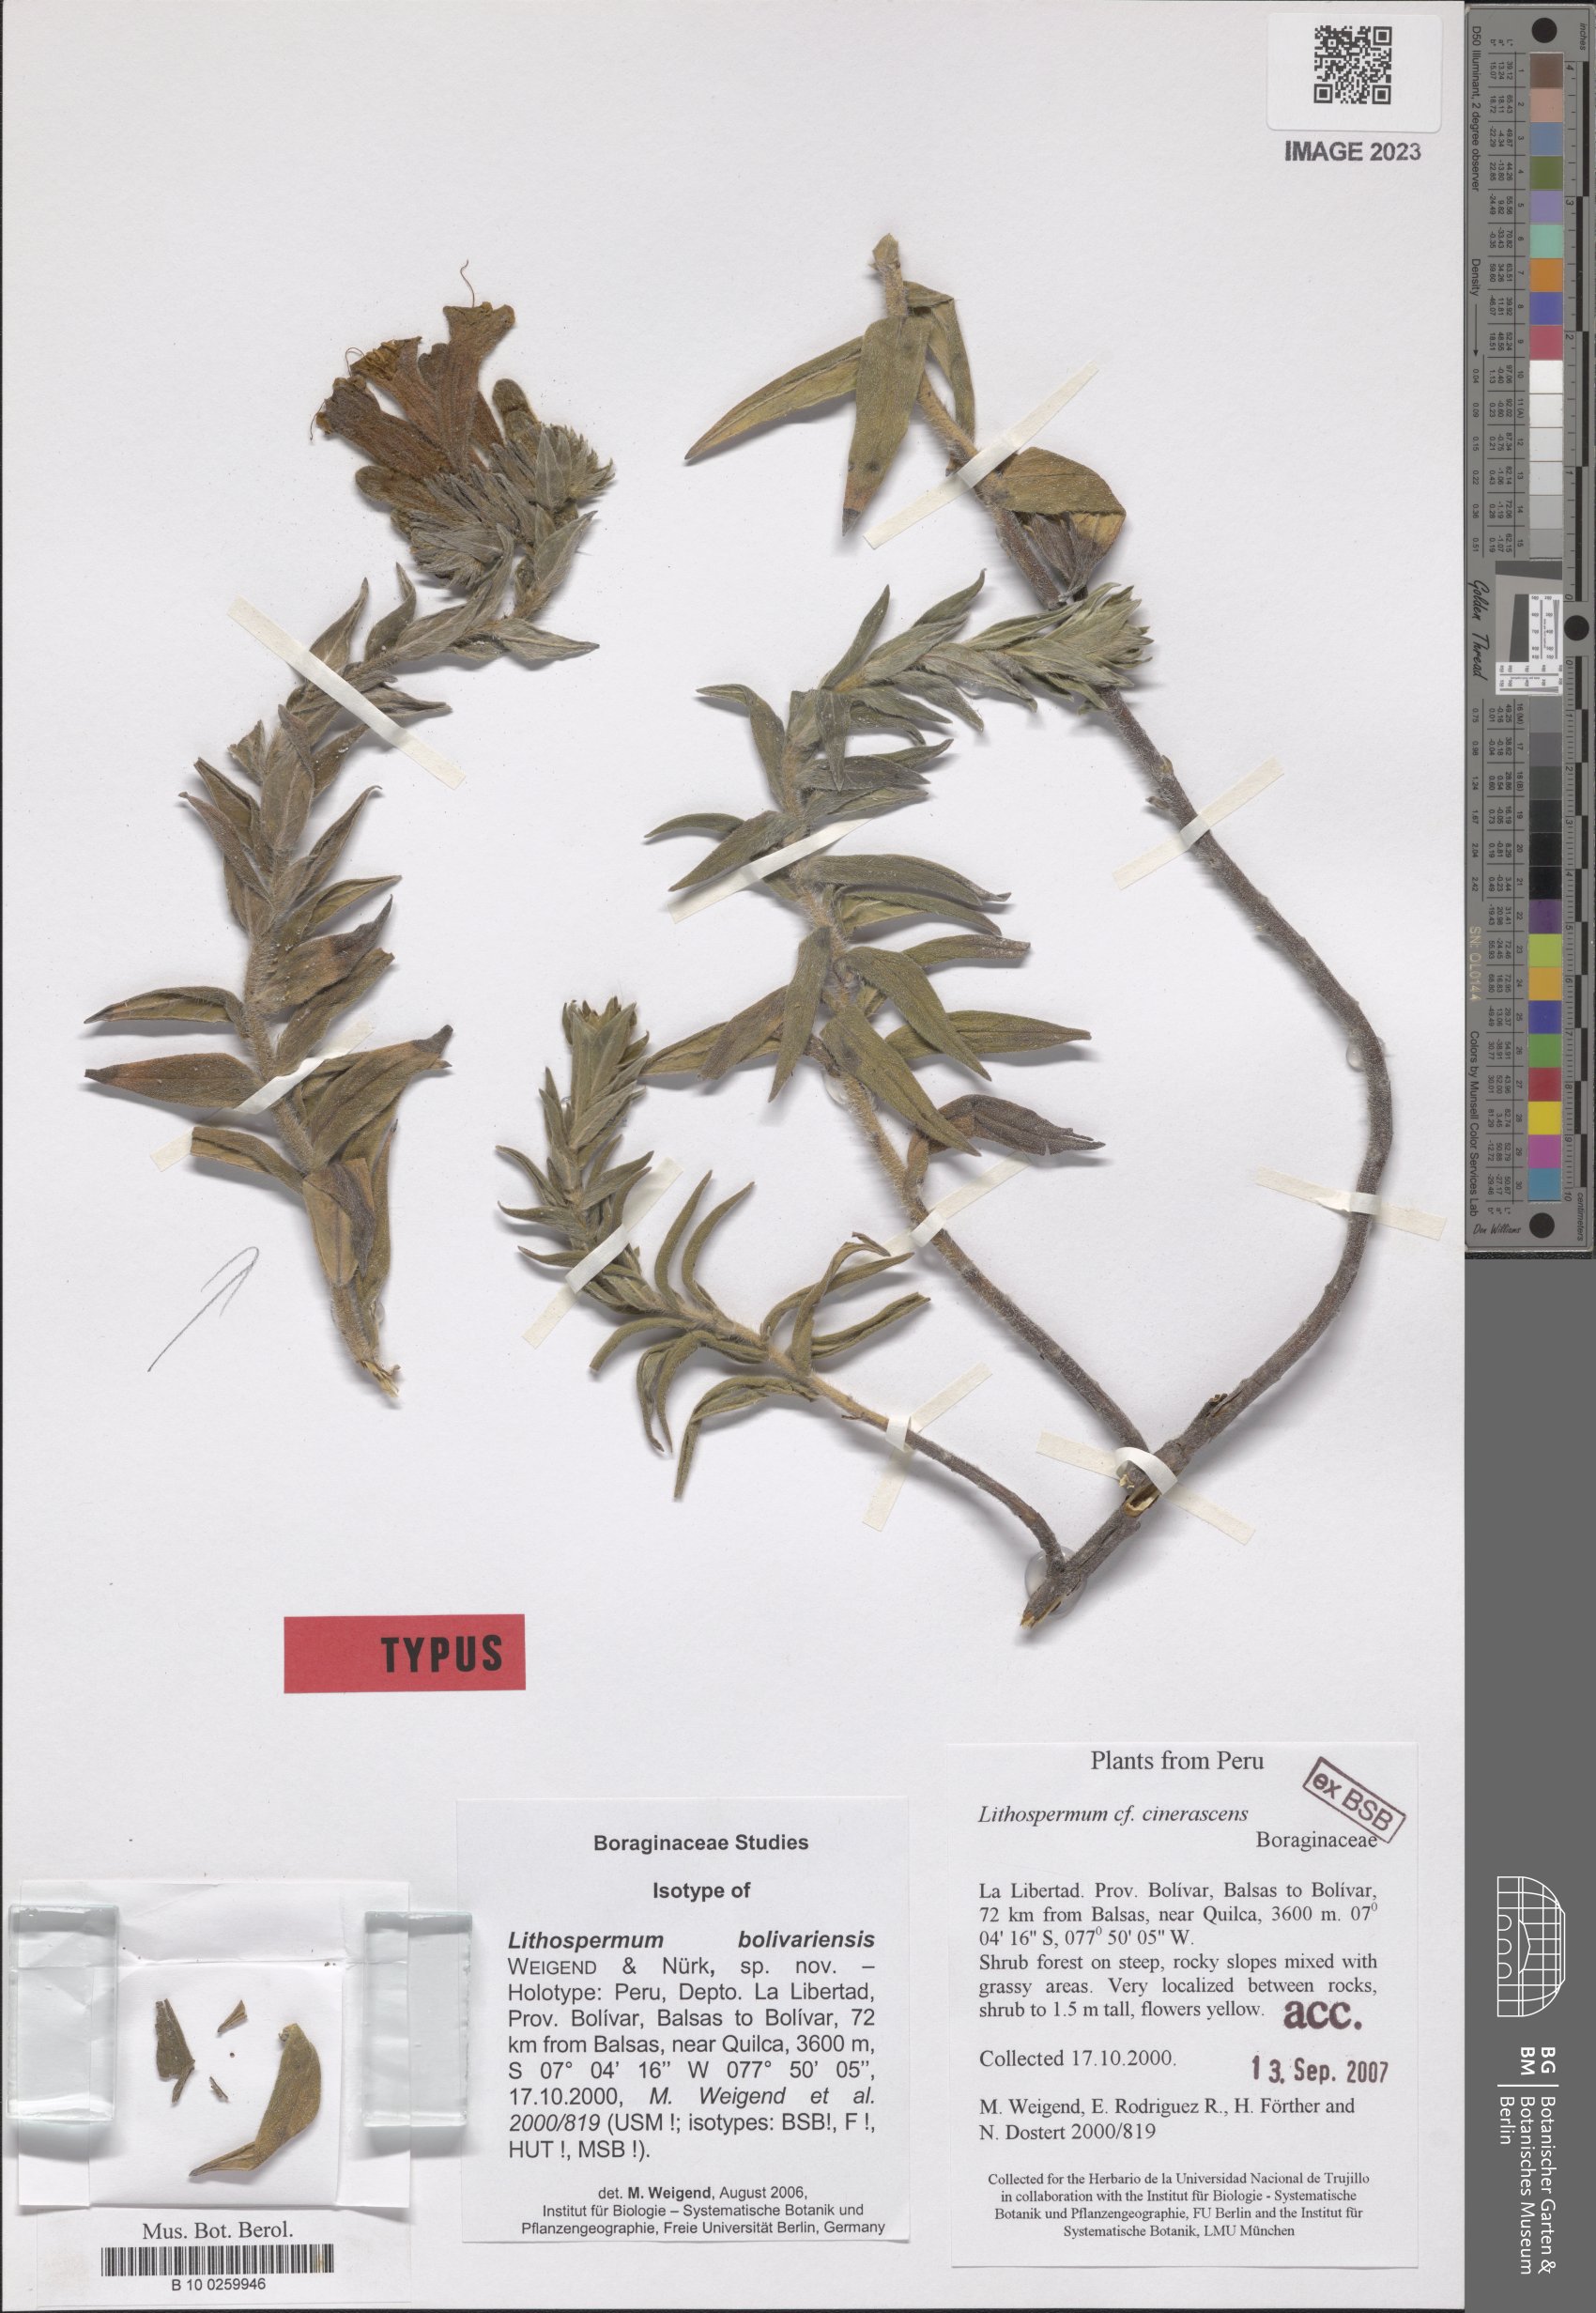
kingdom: Plantae
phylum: Tracheophyta
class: Magnoliopsida
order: Boraginales
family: Boraginaceae
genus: Lithospermum
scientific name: Lithospermum bolivariense
